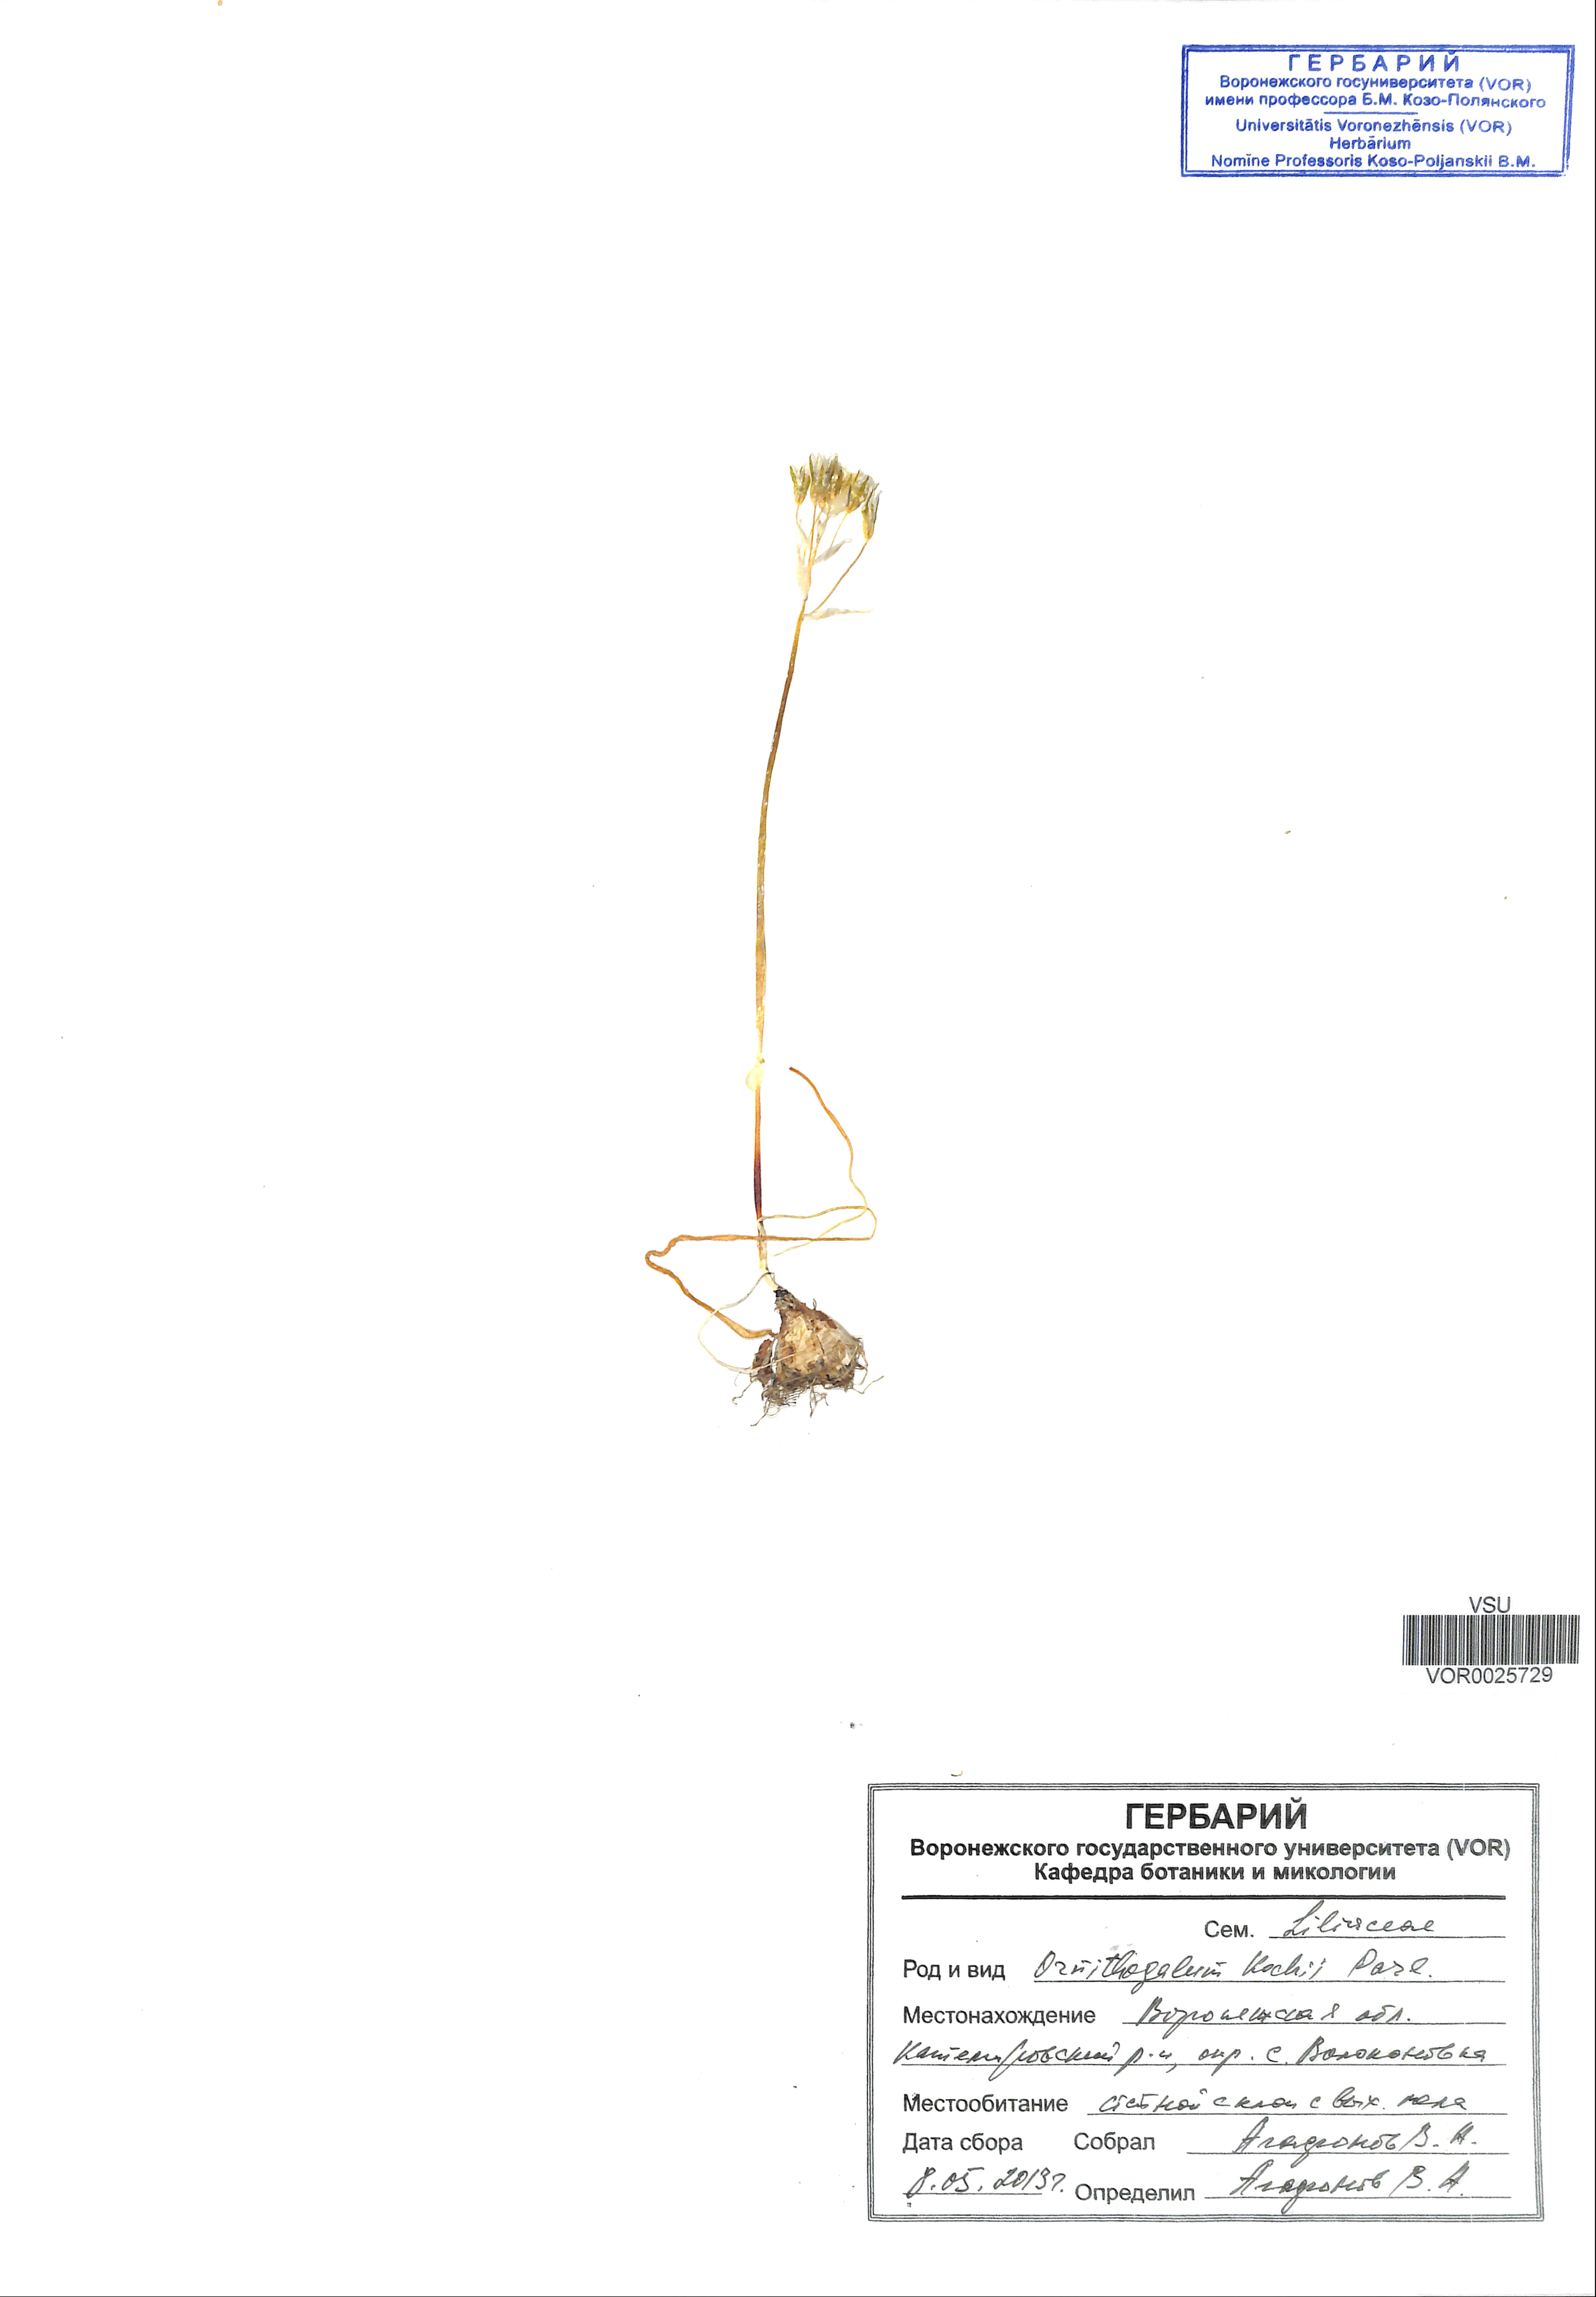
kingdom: Plantae
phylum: Tracheophyta
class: Liliopsida
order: Asparagales
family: Asparagaceae
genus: Ornithogalum
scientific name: Ornithogalum orthophyllum
